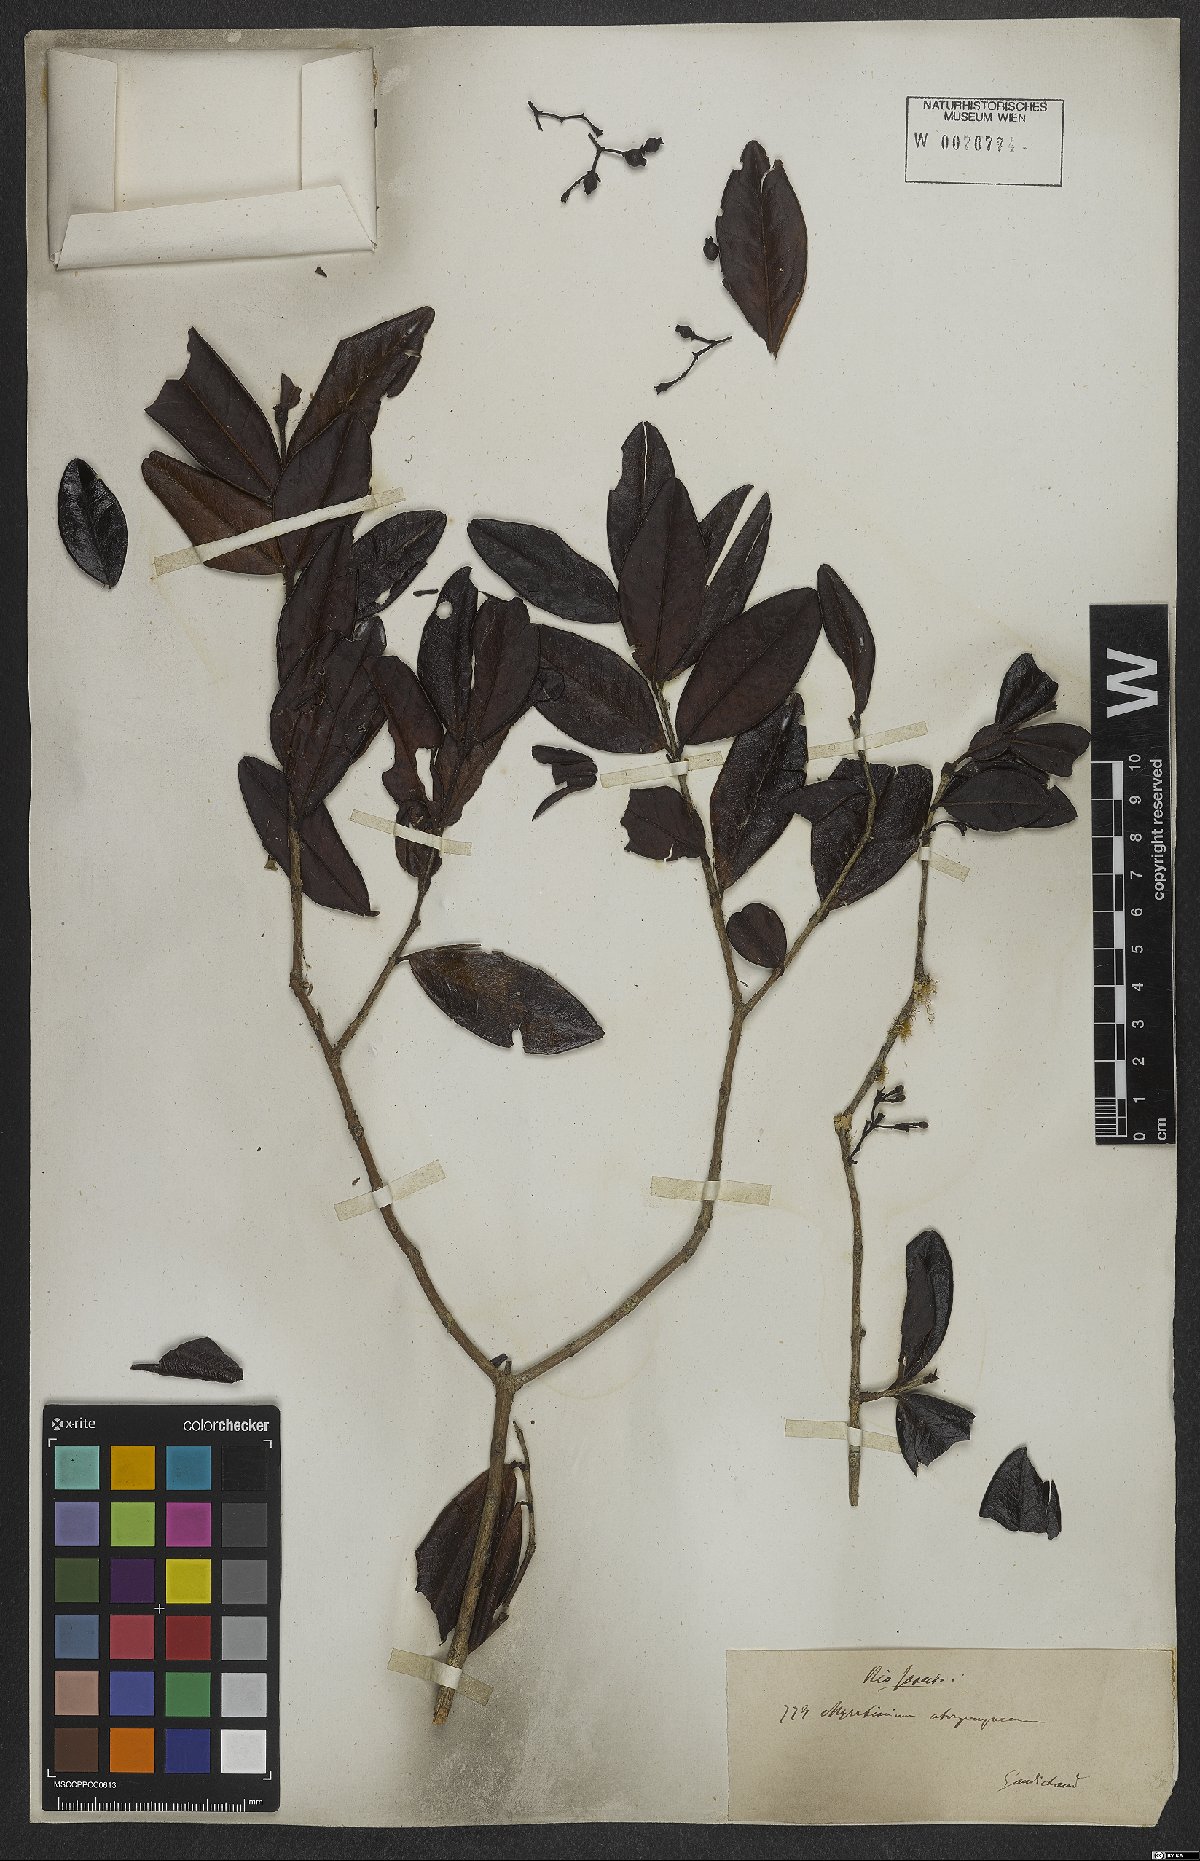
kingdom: Plantae
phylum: Tracheophyta
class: Magnoliopsida
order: Myrtales
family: Myrtaceae
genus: Myrrhinium
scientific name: Myrrhinium atropurpureum
